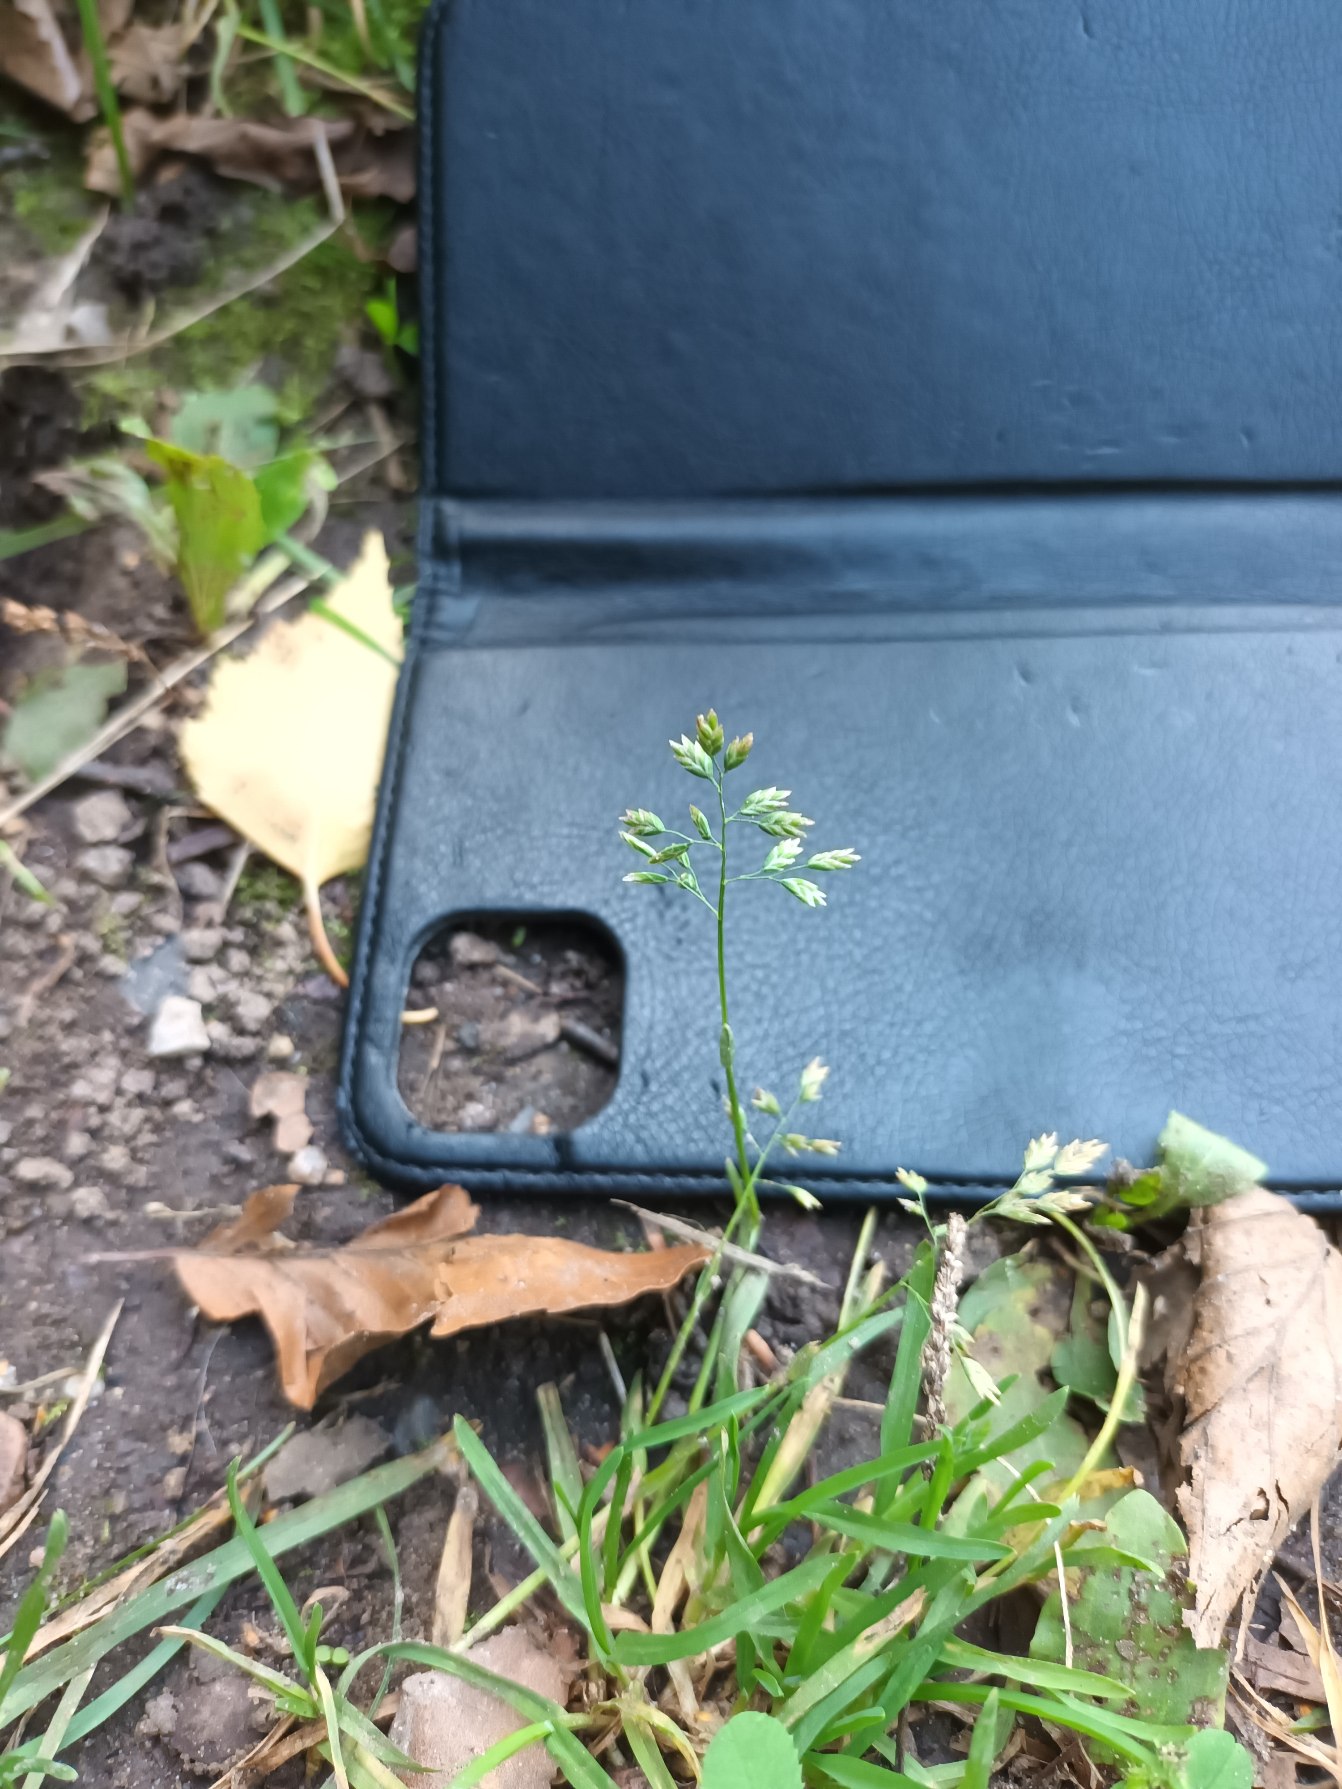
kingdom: Plantae
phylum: Tracheophyta
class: Liliopsida
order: Poales
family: Poaceae
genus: Poa
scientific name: Poa annua
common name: Enårig rapgræs
